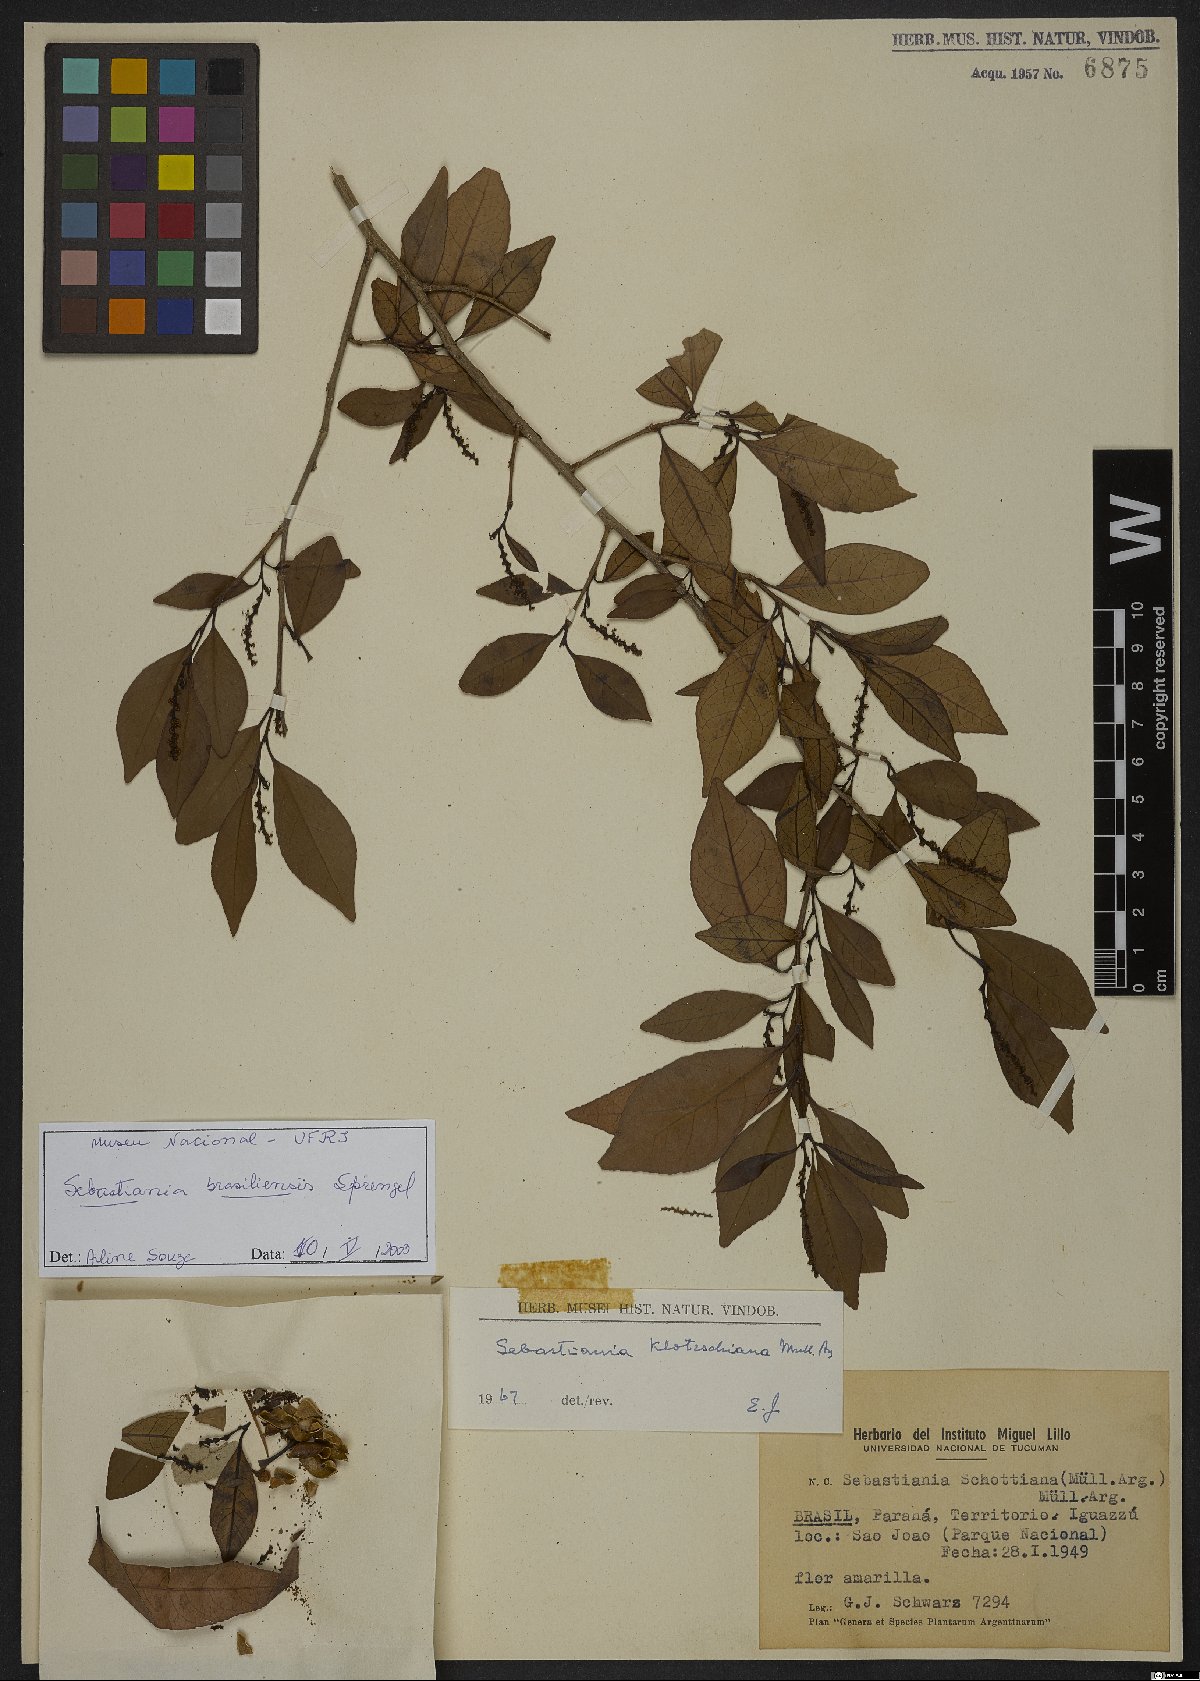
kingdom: Plantae
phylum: Tracheophyta
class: Magnoliopsida
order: Malpighiales
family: Euphorbiaceae
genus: Sebastiania
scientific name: Sebastiania brasiliensis
